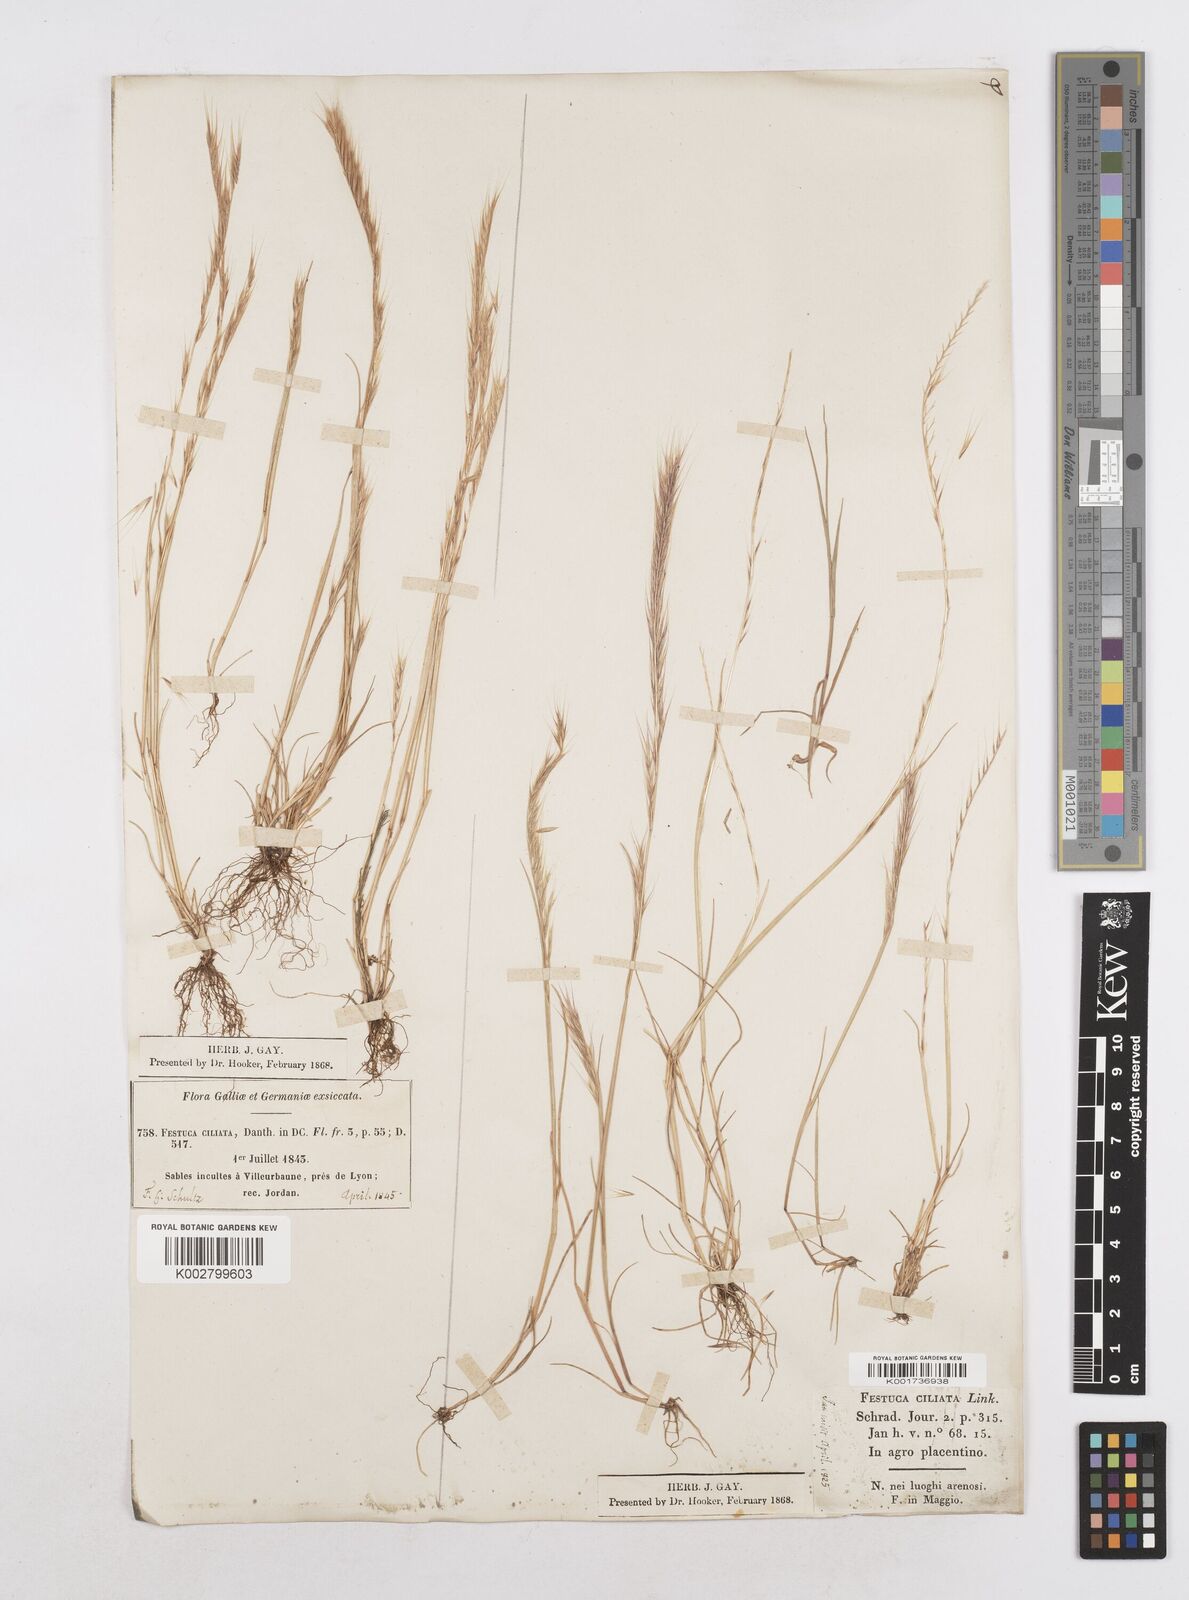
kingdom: Plantae
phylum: Tracheophyta
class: Liliopsida
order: Poales
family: Poaceae
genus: Festuca
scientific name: Festuca
